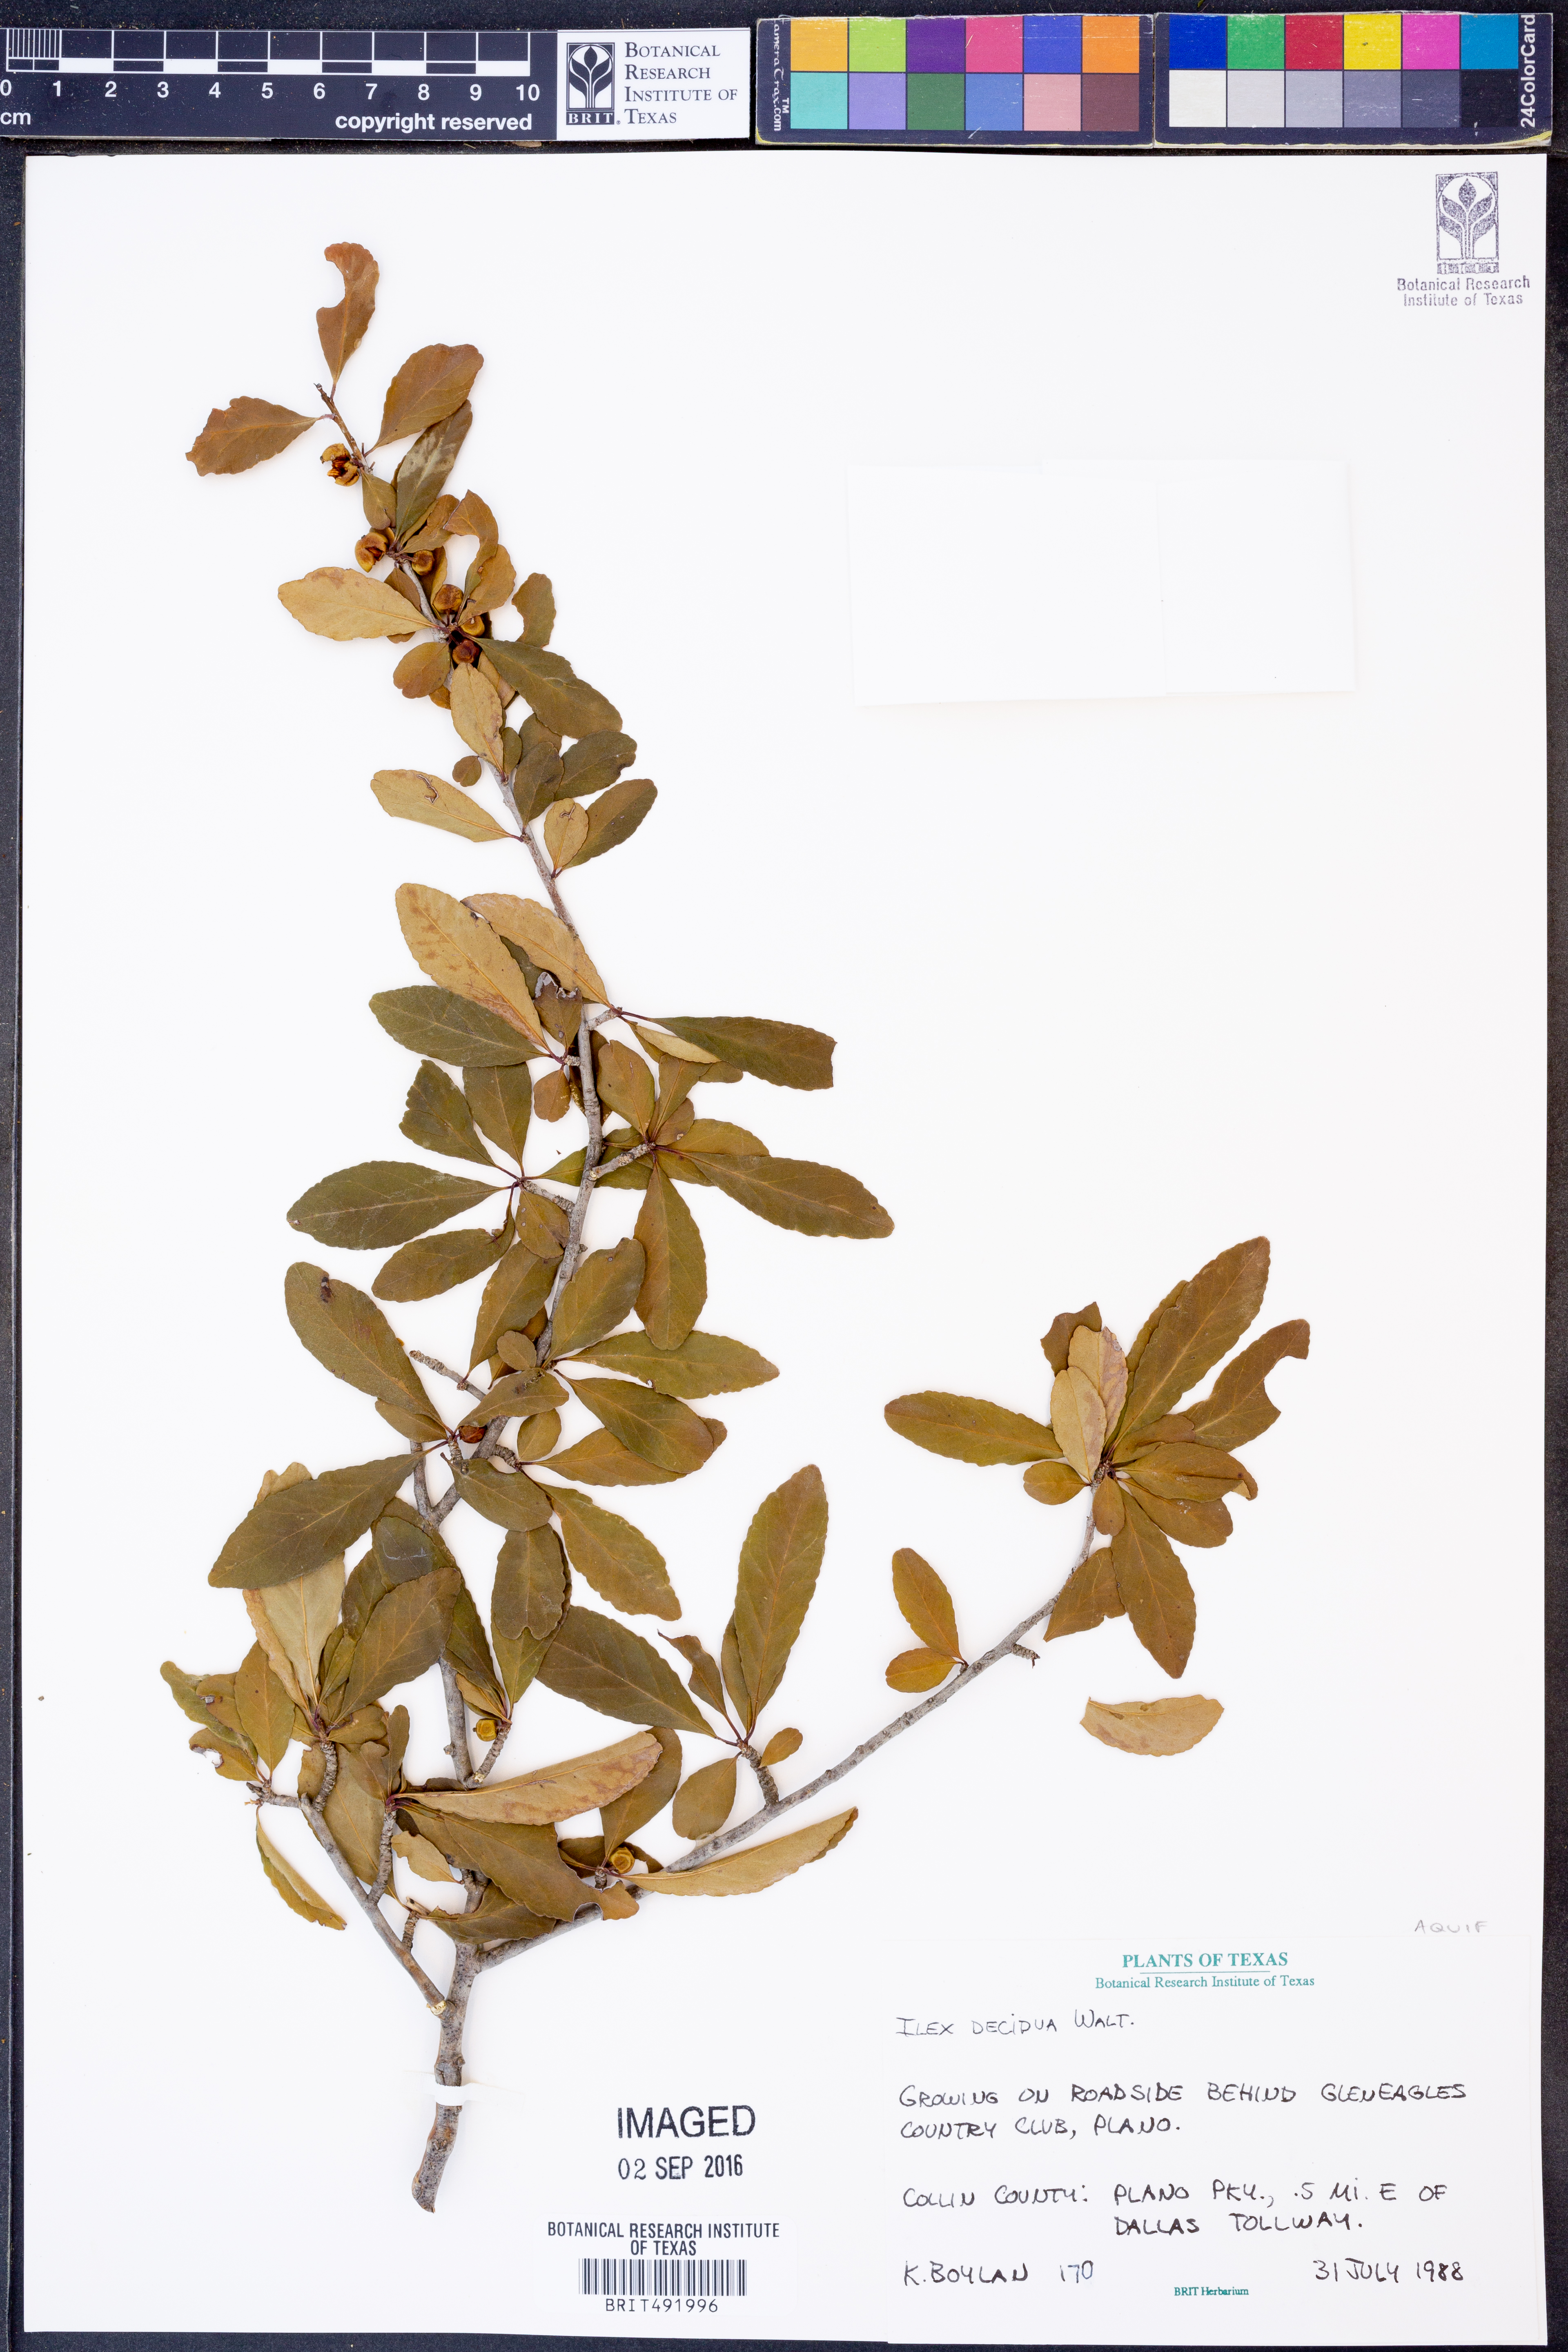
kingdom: Plantae
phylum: Tracheophyta
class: Magnoliopsida
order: Aquifoliales
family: Aquifoliaceae
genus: Ilex
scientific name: Ilex decidua
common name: Possum-haw
